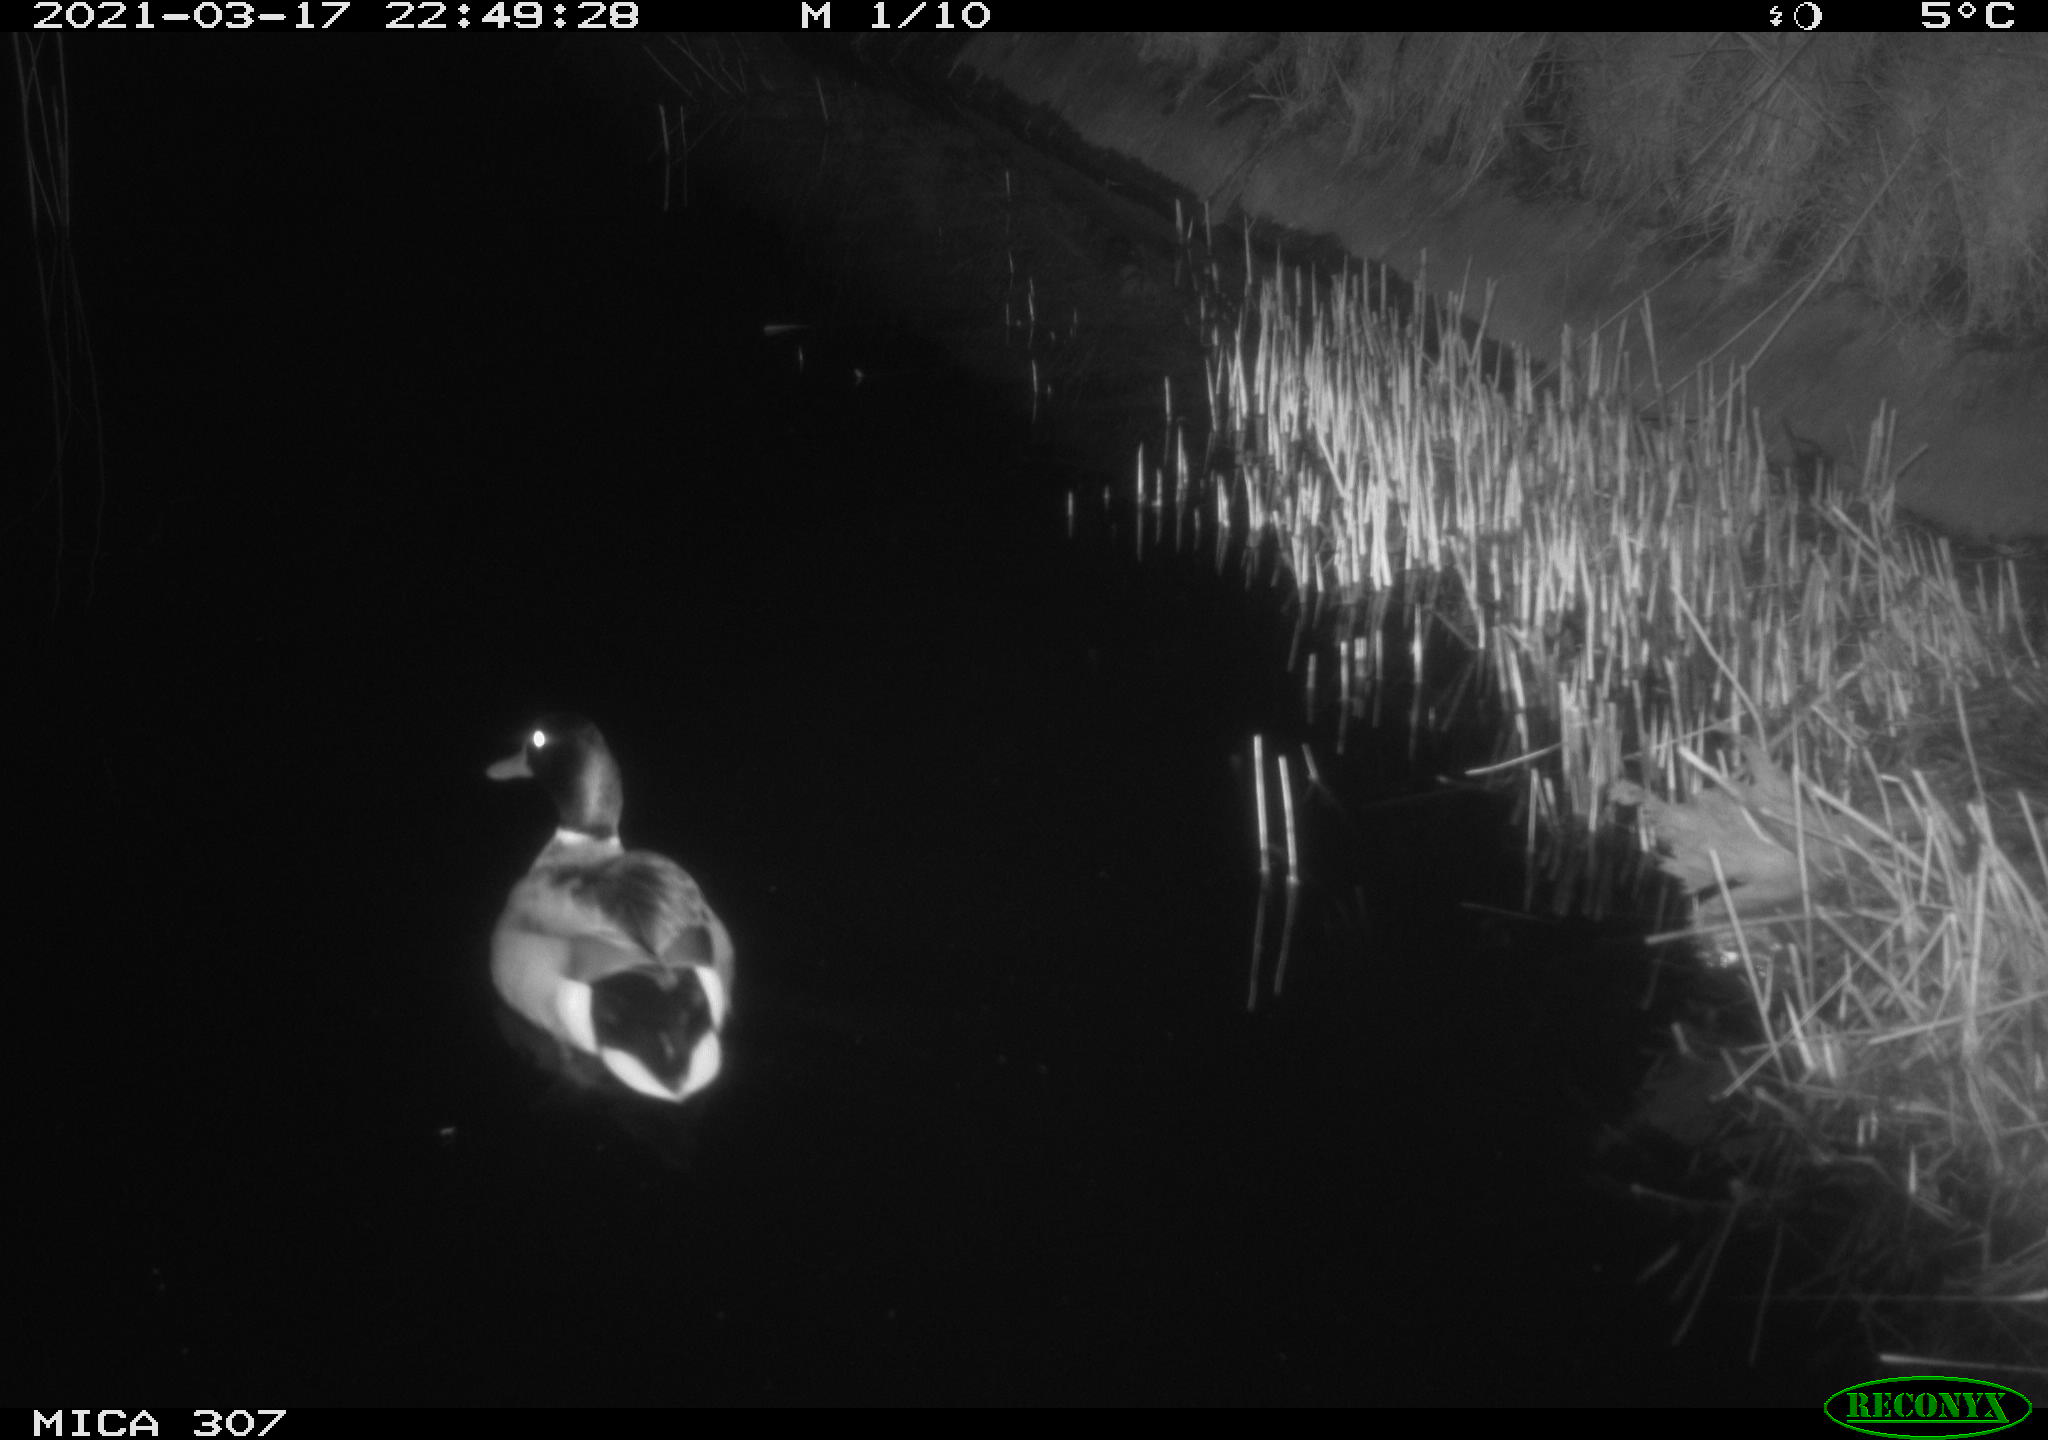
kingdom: Animalia
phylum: Chordata
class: Aves
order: Anseriformes
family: Anatidae
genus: Anas
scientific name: Anas platyrhynchos
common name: Mallard
